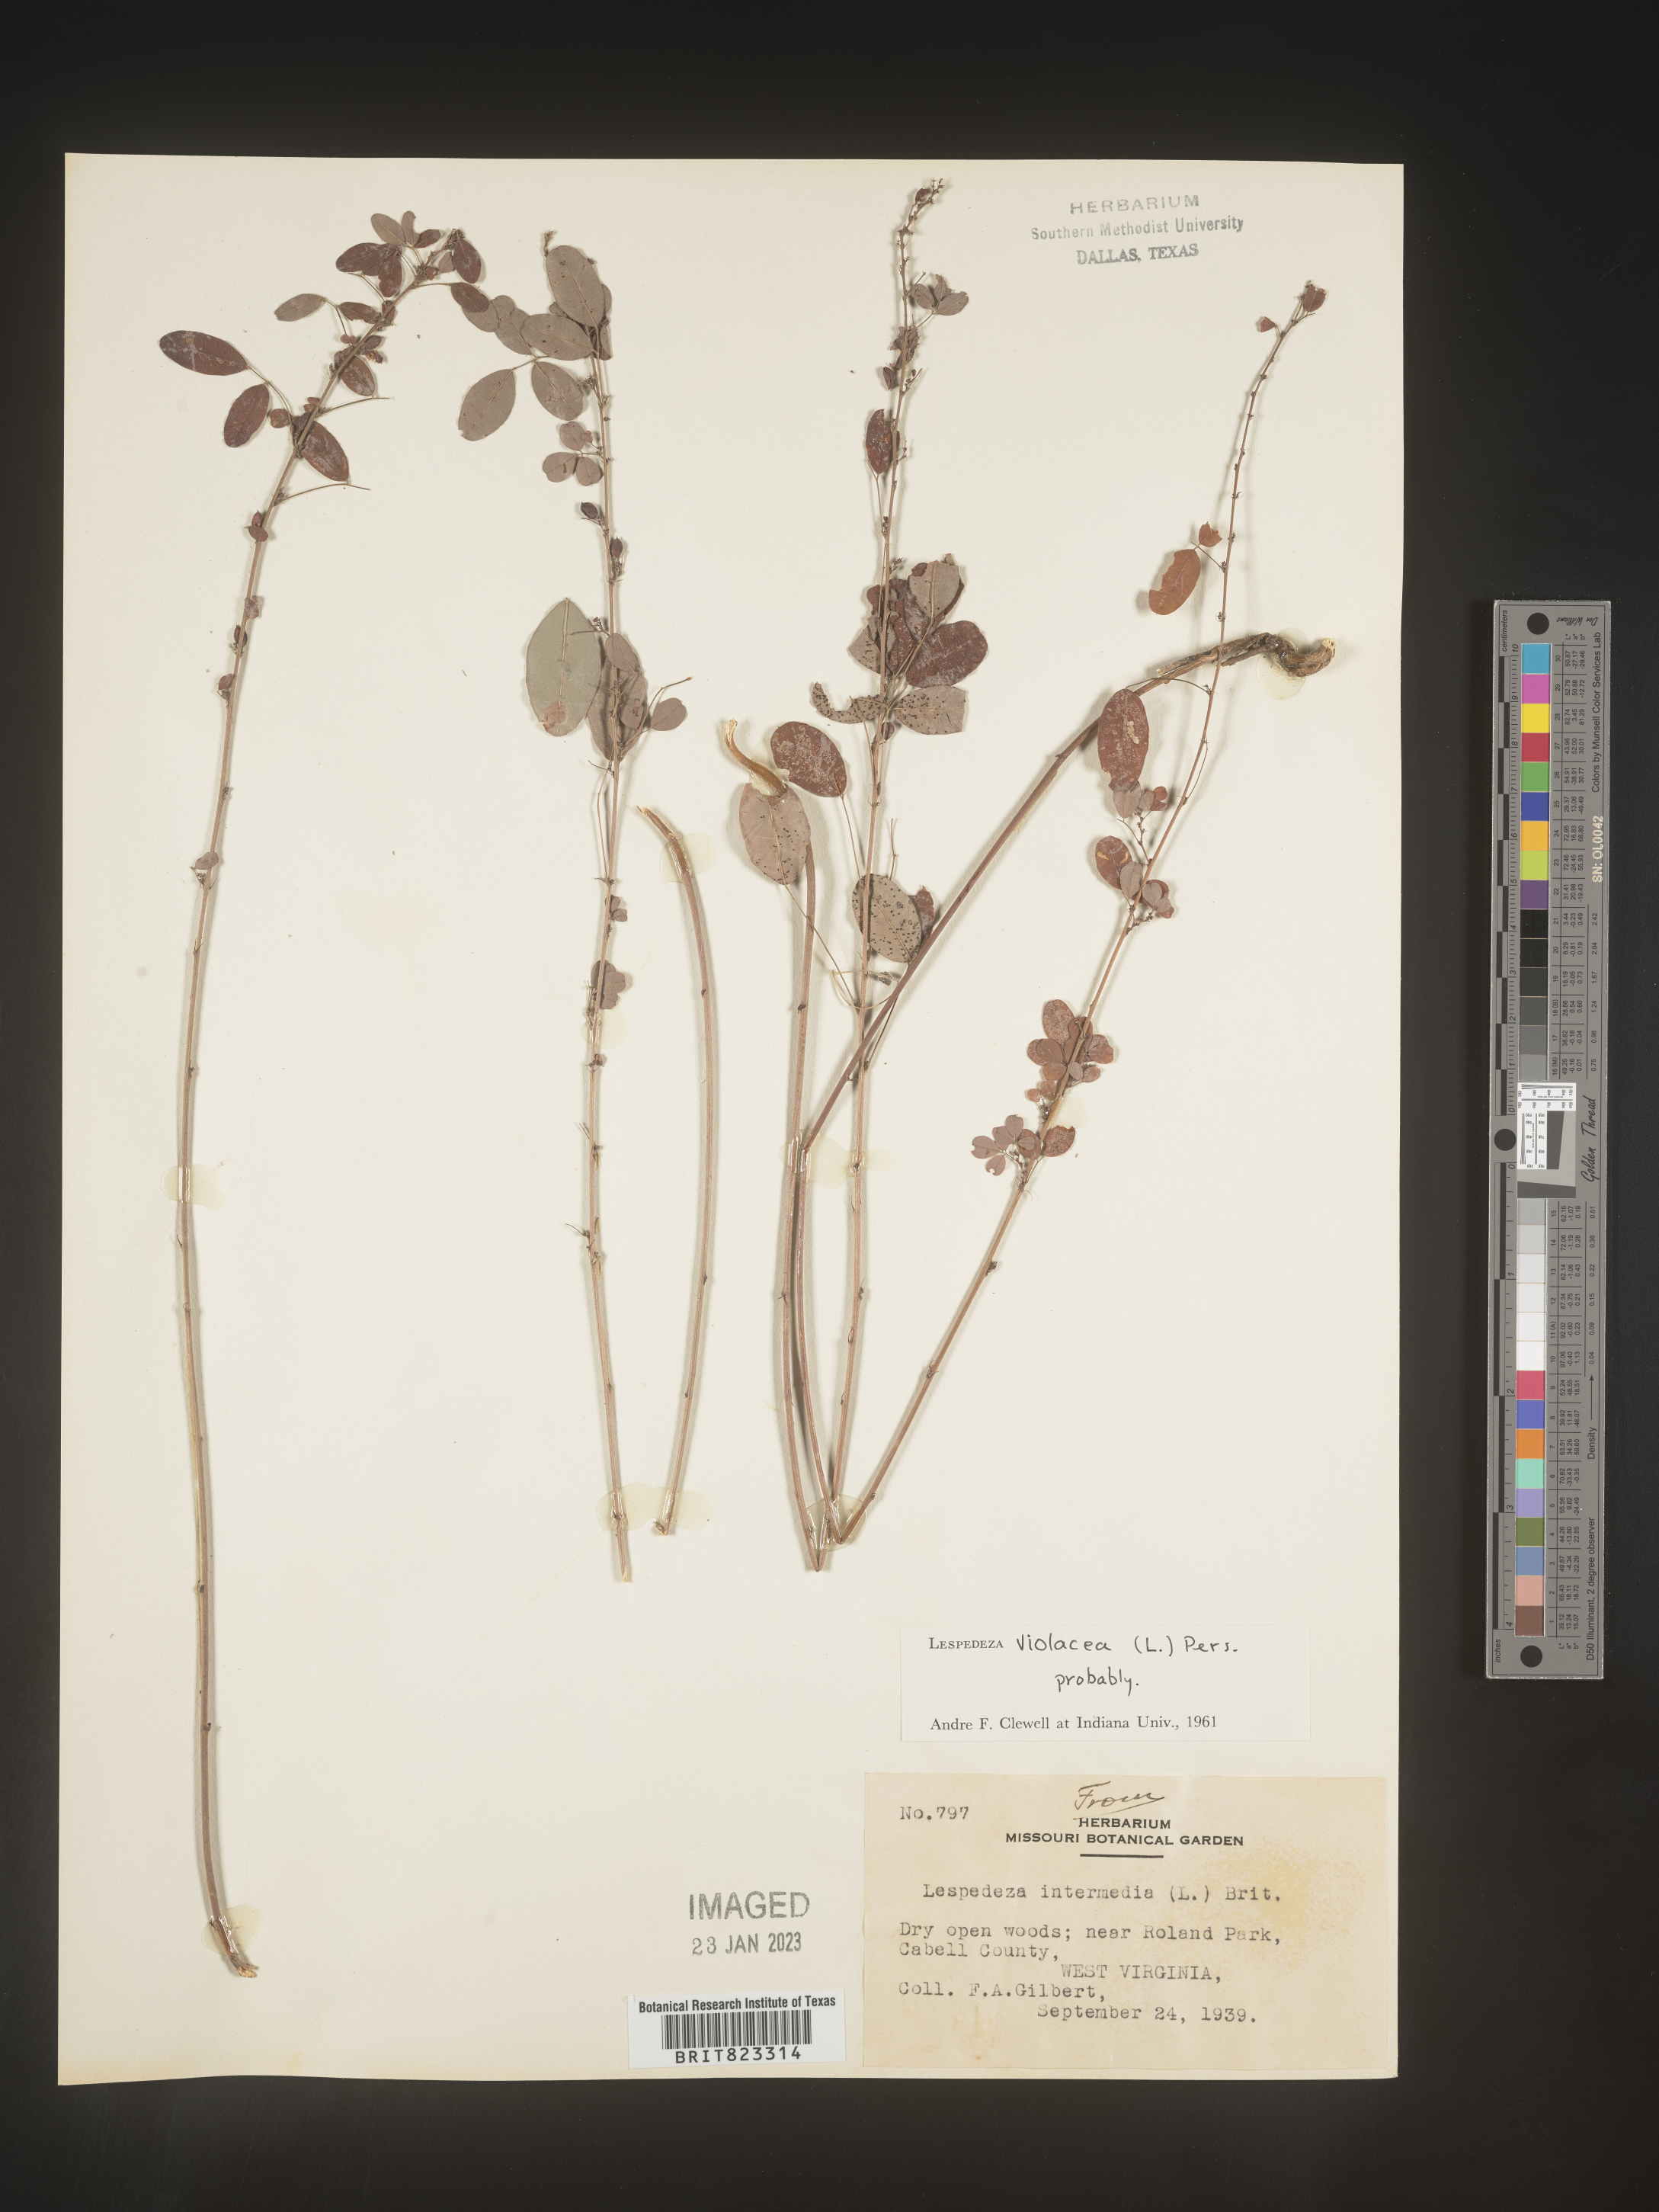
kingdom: Plantae
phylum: Tracheophyta
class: Magnoliopsida
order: Fabales
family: Fabaceae
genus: Lespedeza
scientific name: Lespedeza violacea
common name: Wand bush-clover
